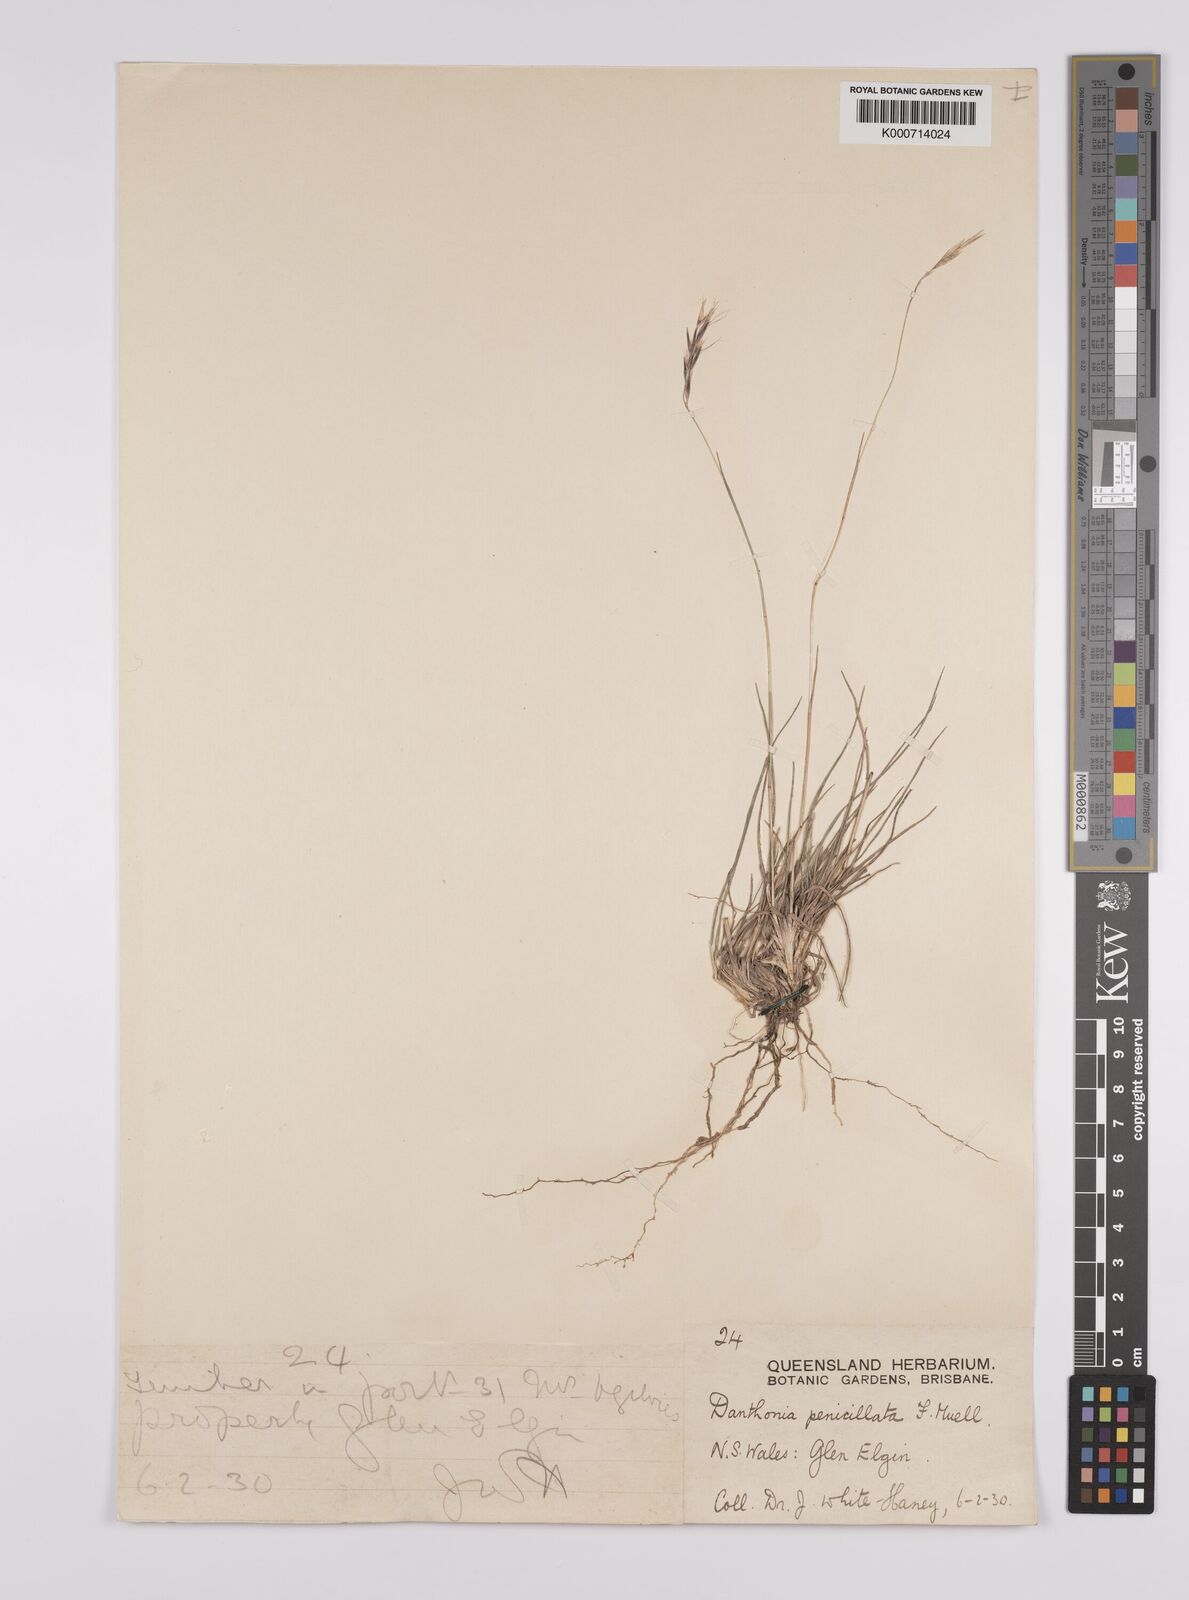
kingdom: Plantae
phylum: Tracheophyta
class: Liliopsida
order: Poales
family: Poaceae
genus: Rytidosperma
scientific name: Rytidosperma penicillatum
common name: Hairy wallaby grass
